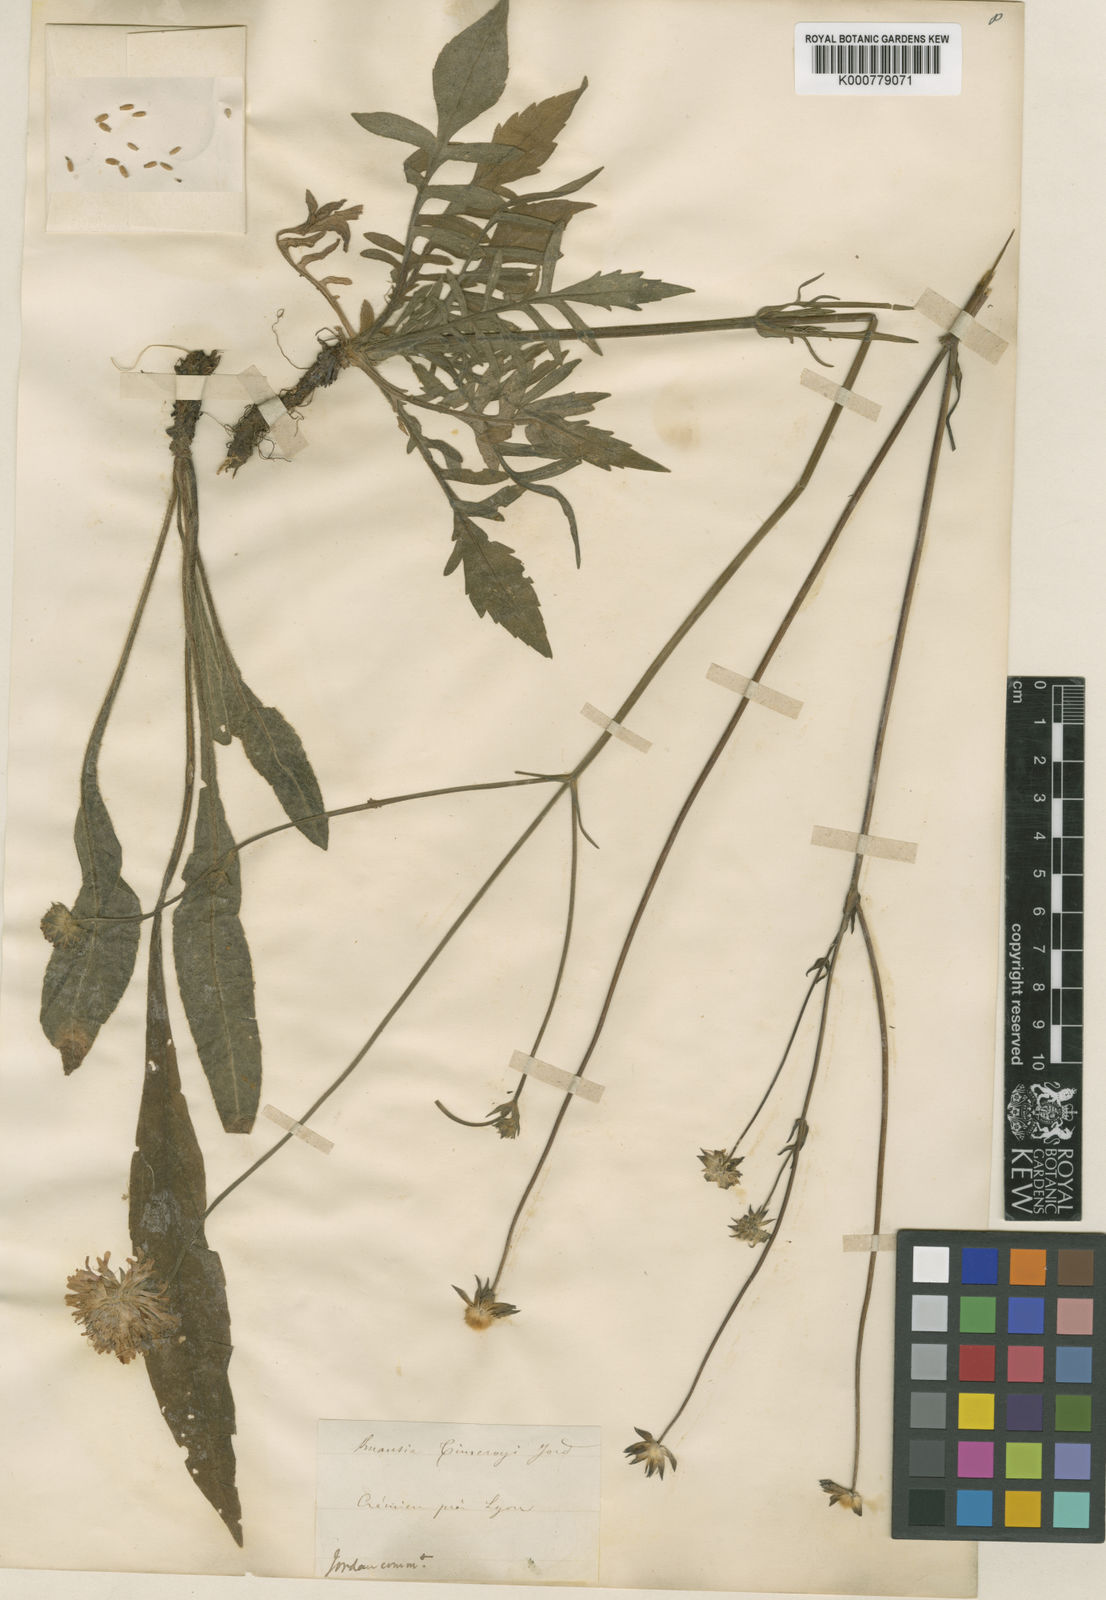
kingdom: Plantae
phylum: Tracheophyta
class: Magnoliopsida
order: Dipsacales
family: Caprifoliaceae
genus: Knautia
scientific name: Knautia arvensis
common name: Field scabiosa
